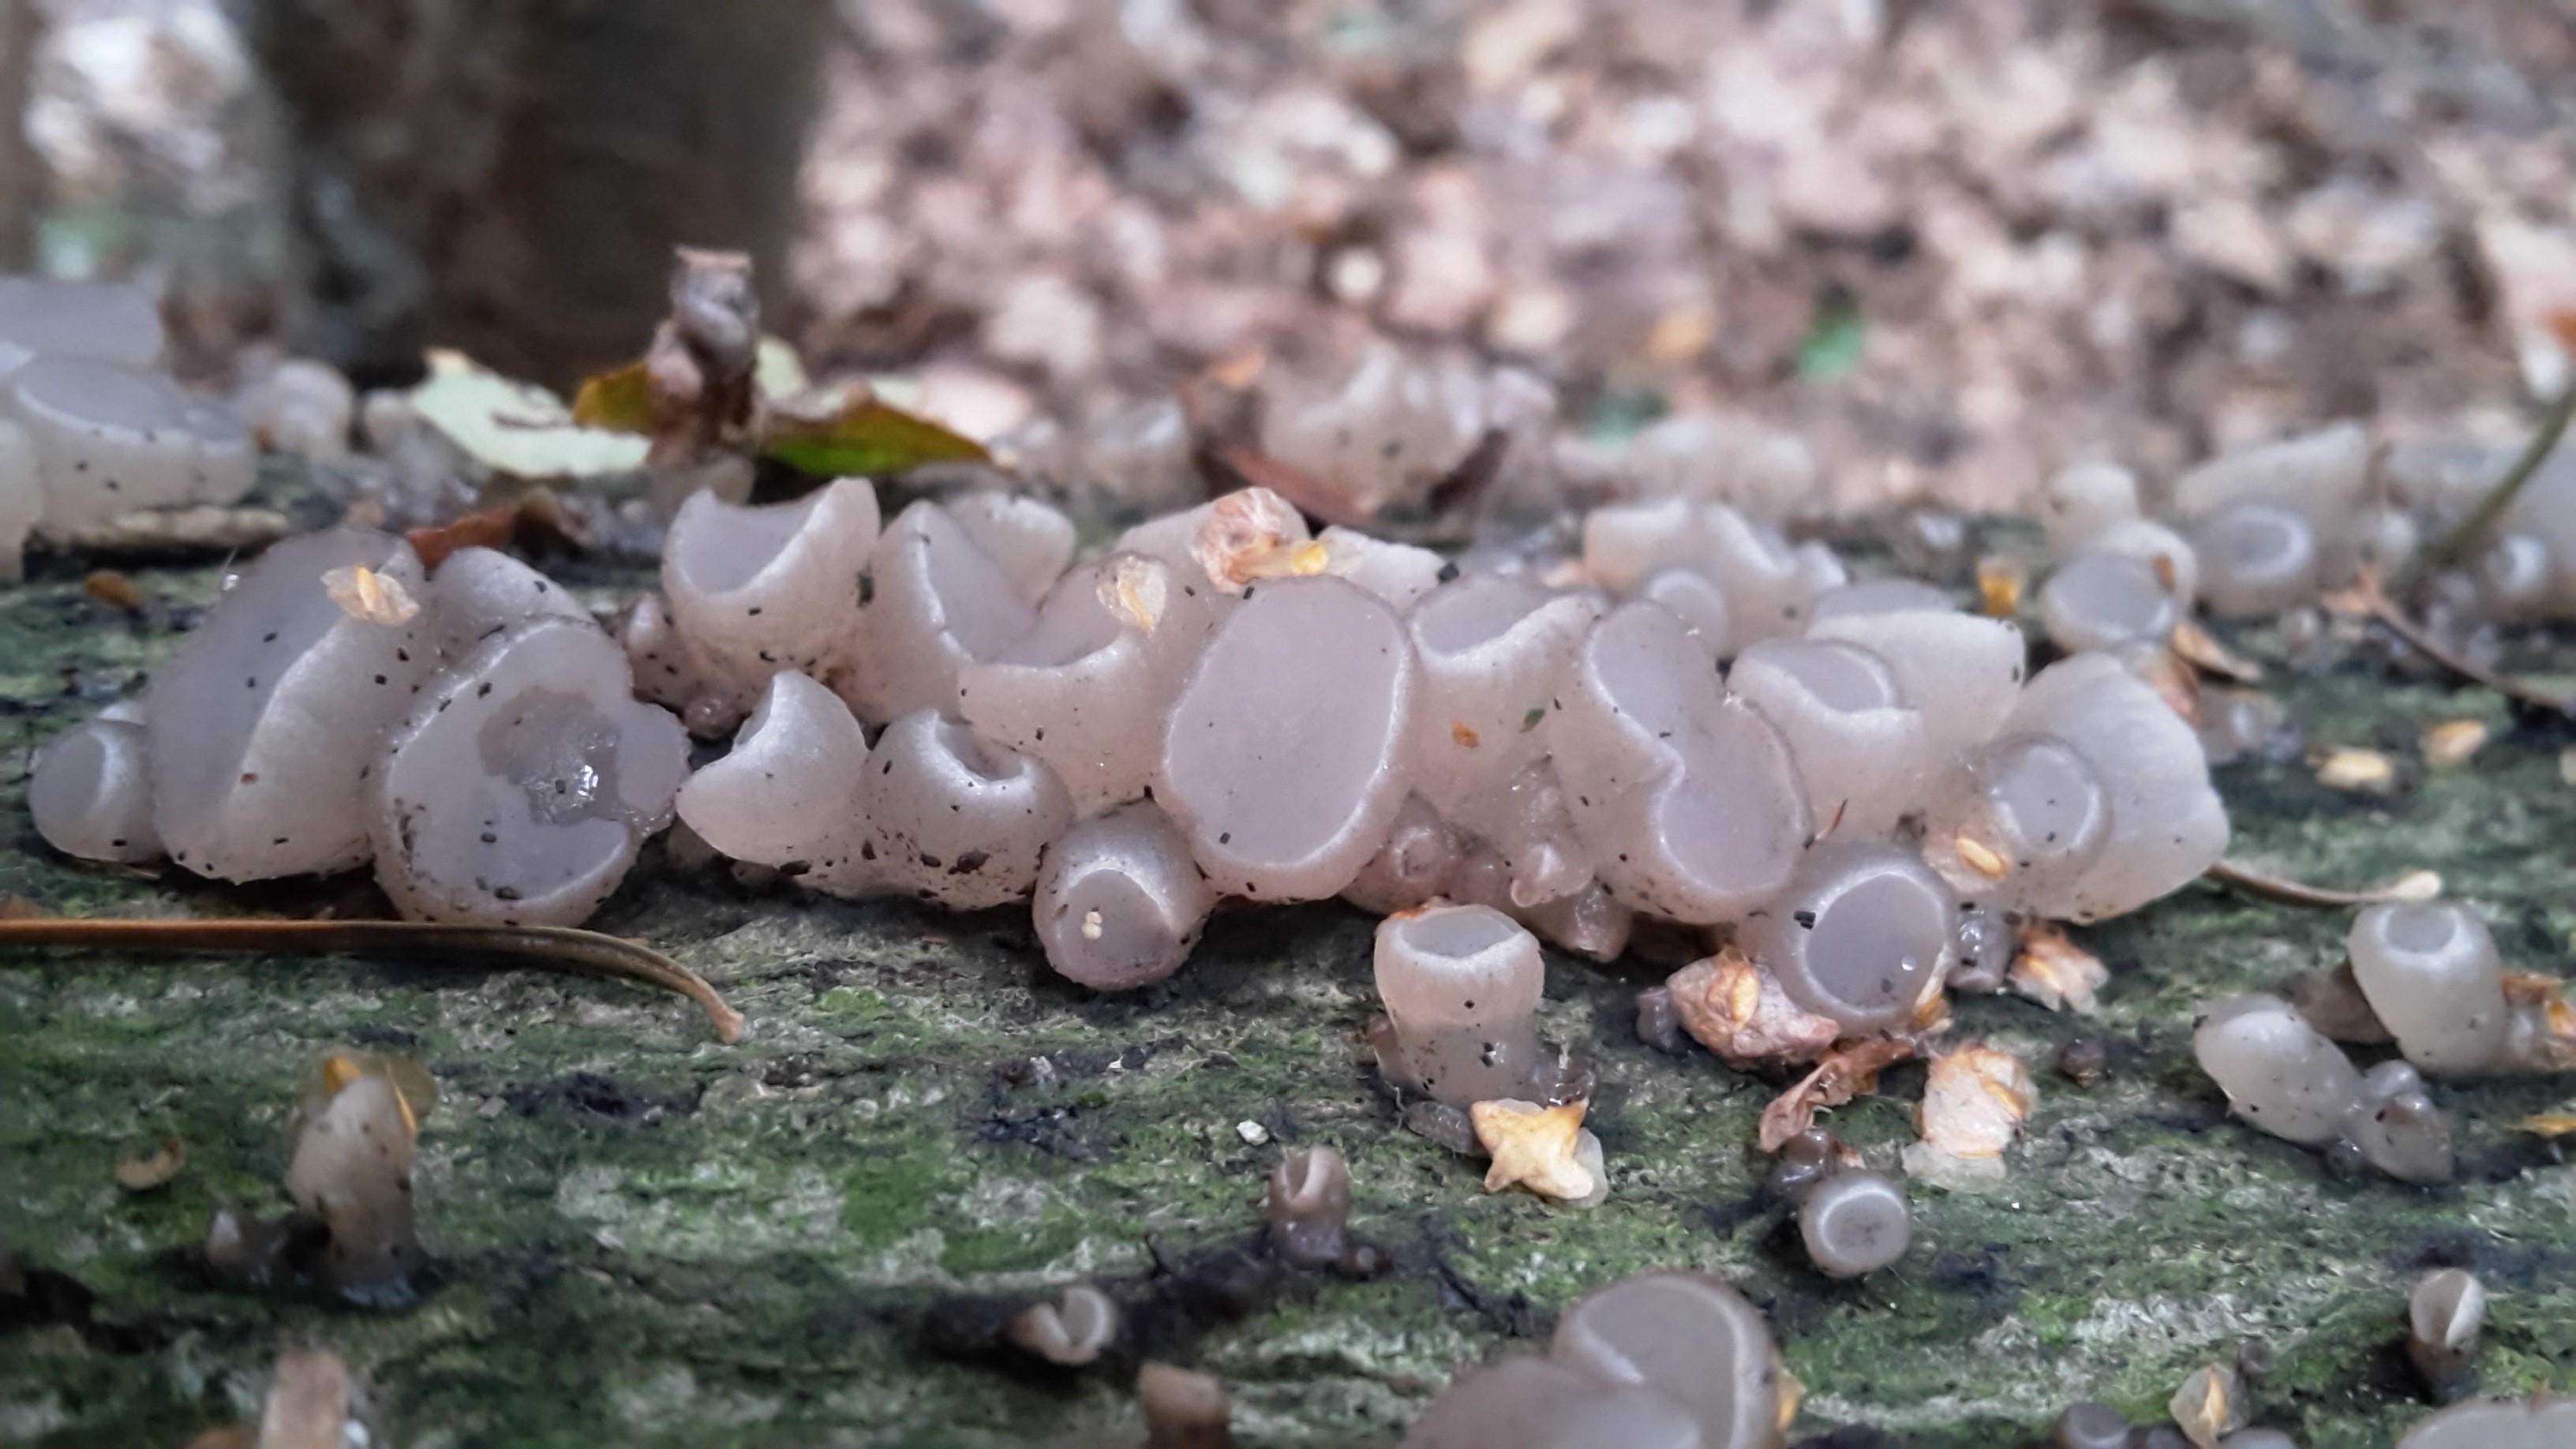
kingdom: Fungi
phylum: Ascomycota
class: Leotiomycetes
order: Helotiales
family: Gelatinodiscaceae
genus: Neobulgaria
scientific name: Neobulgaria pura
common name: bleg bævreskive
